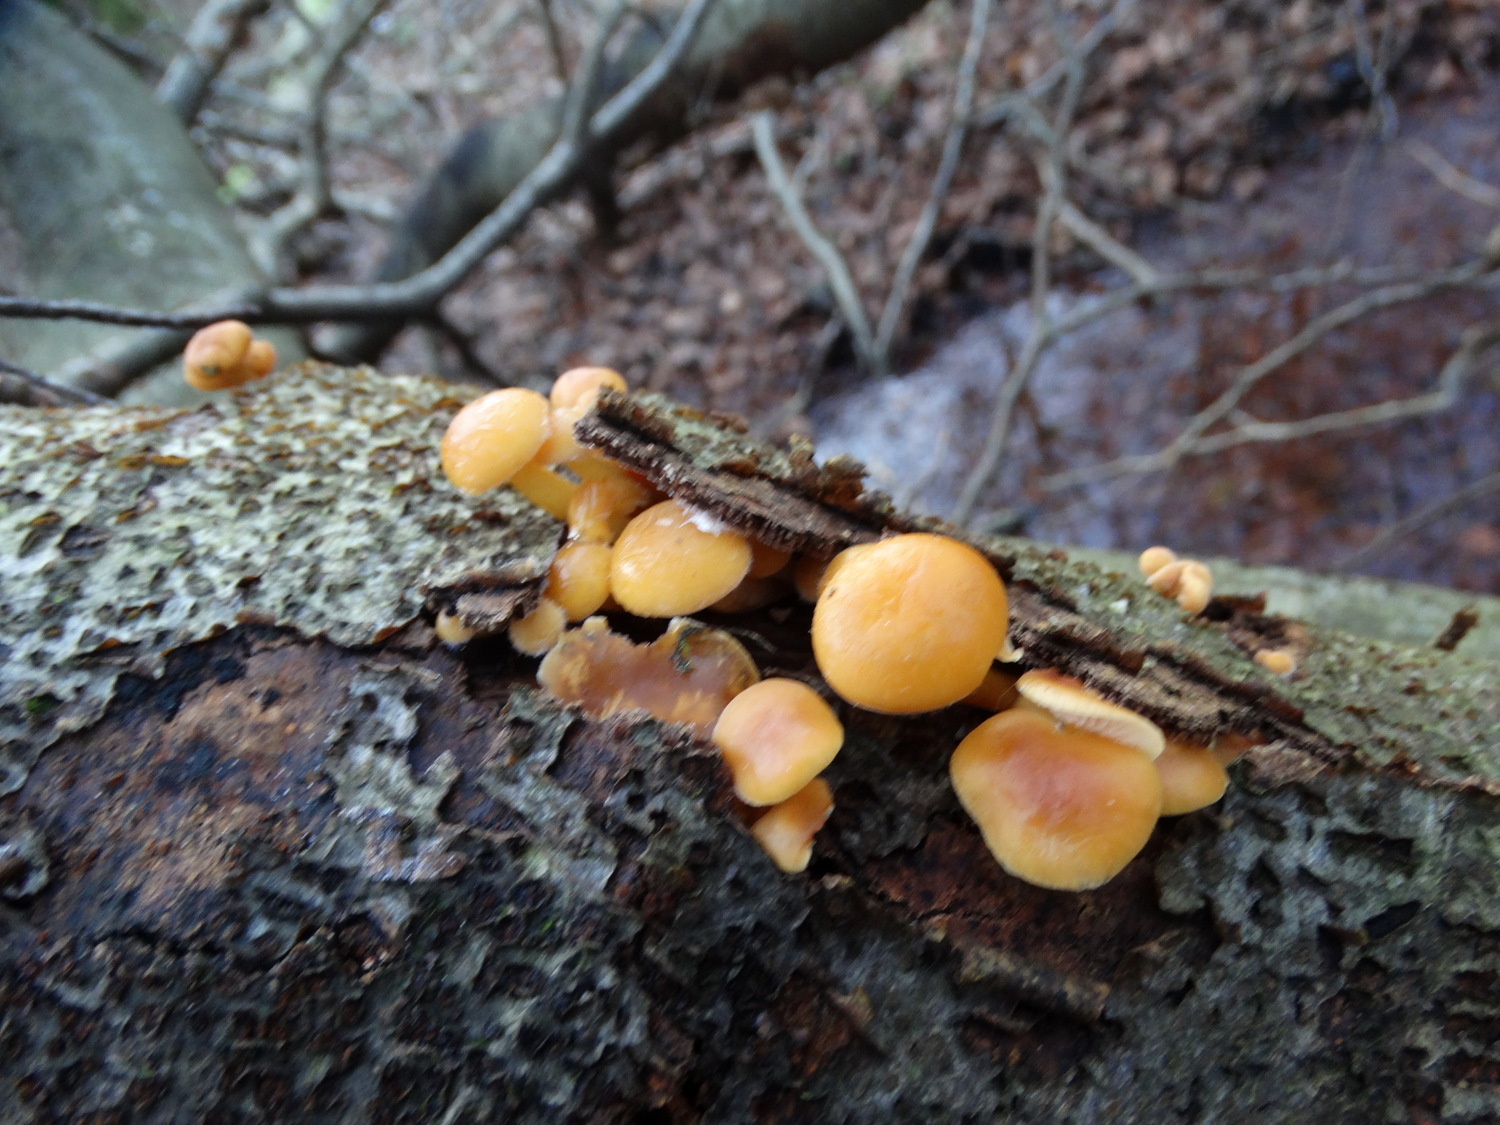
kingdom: Fungi
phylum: Basidiomycota
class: Agaricomycetes
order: Agaricales
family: Physalacriaceae
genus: Flammulina
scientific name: Flammulina velutipes
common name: gul fløjlsfod
